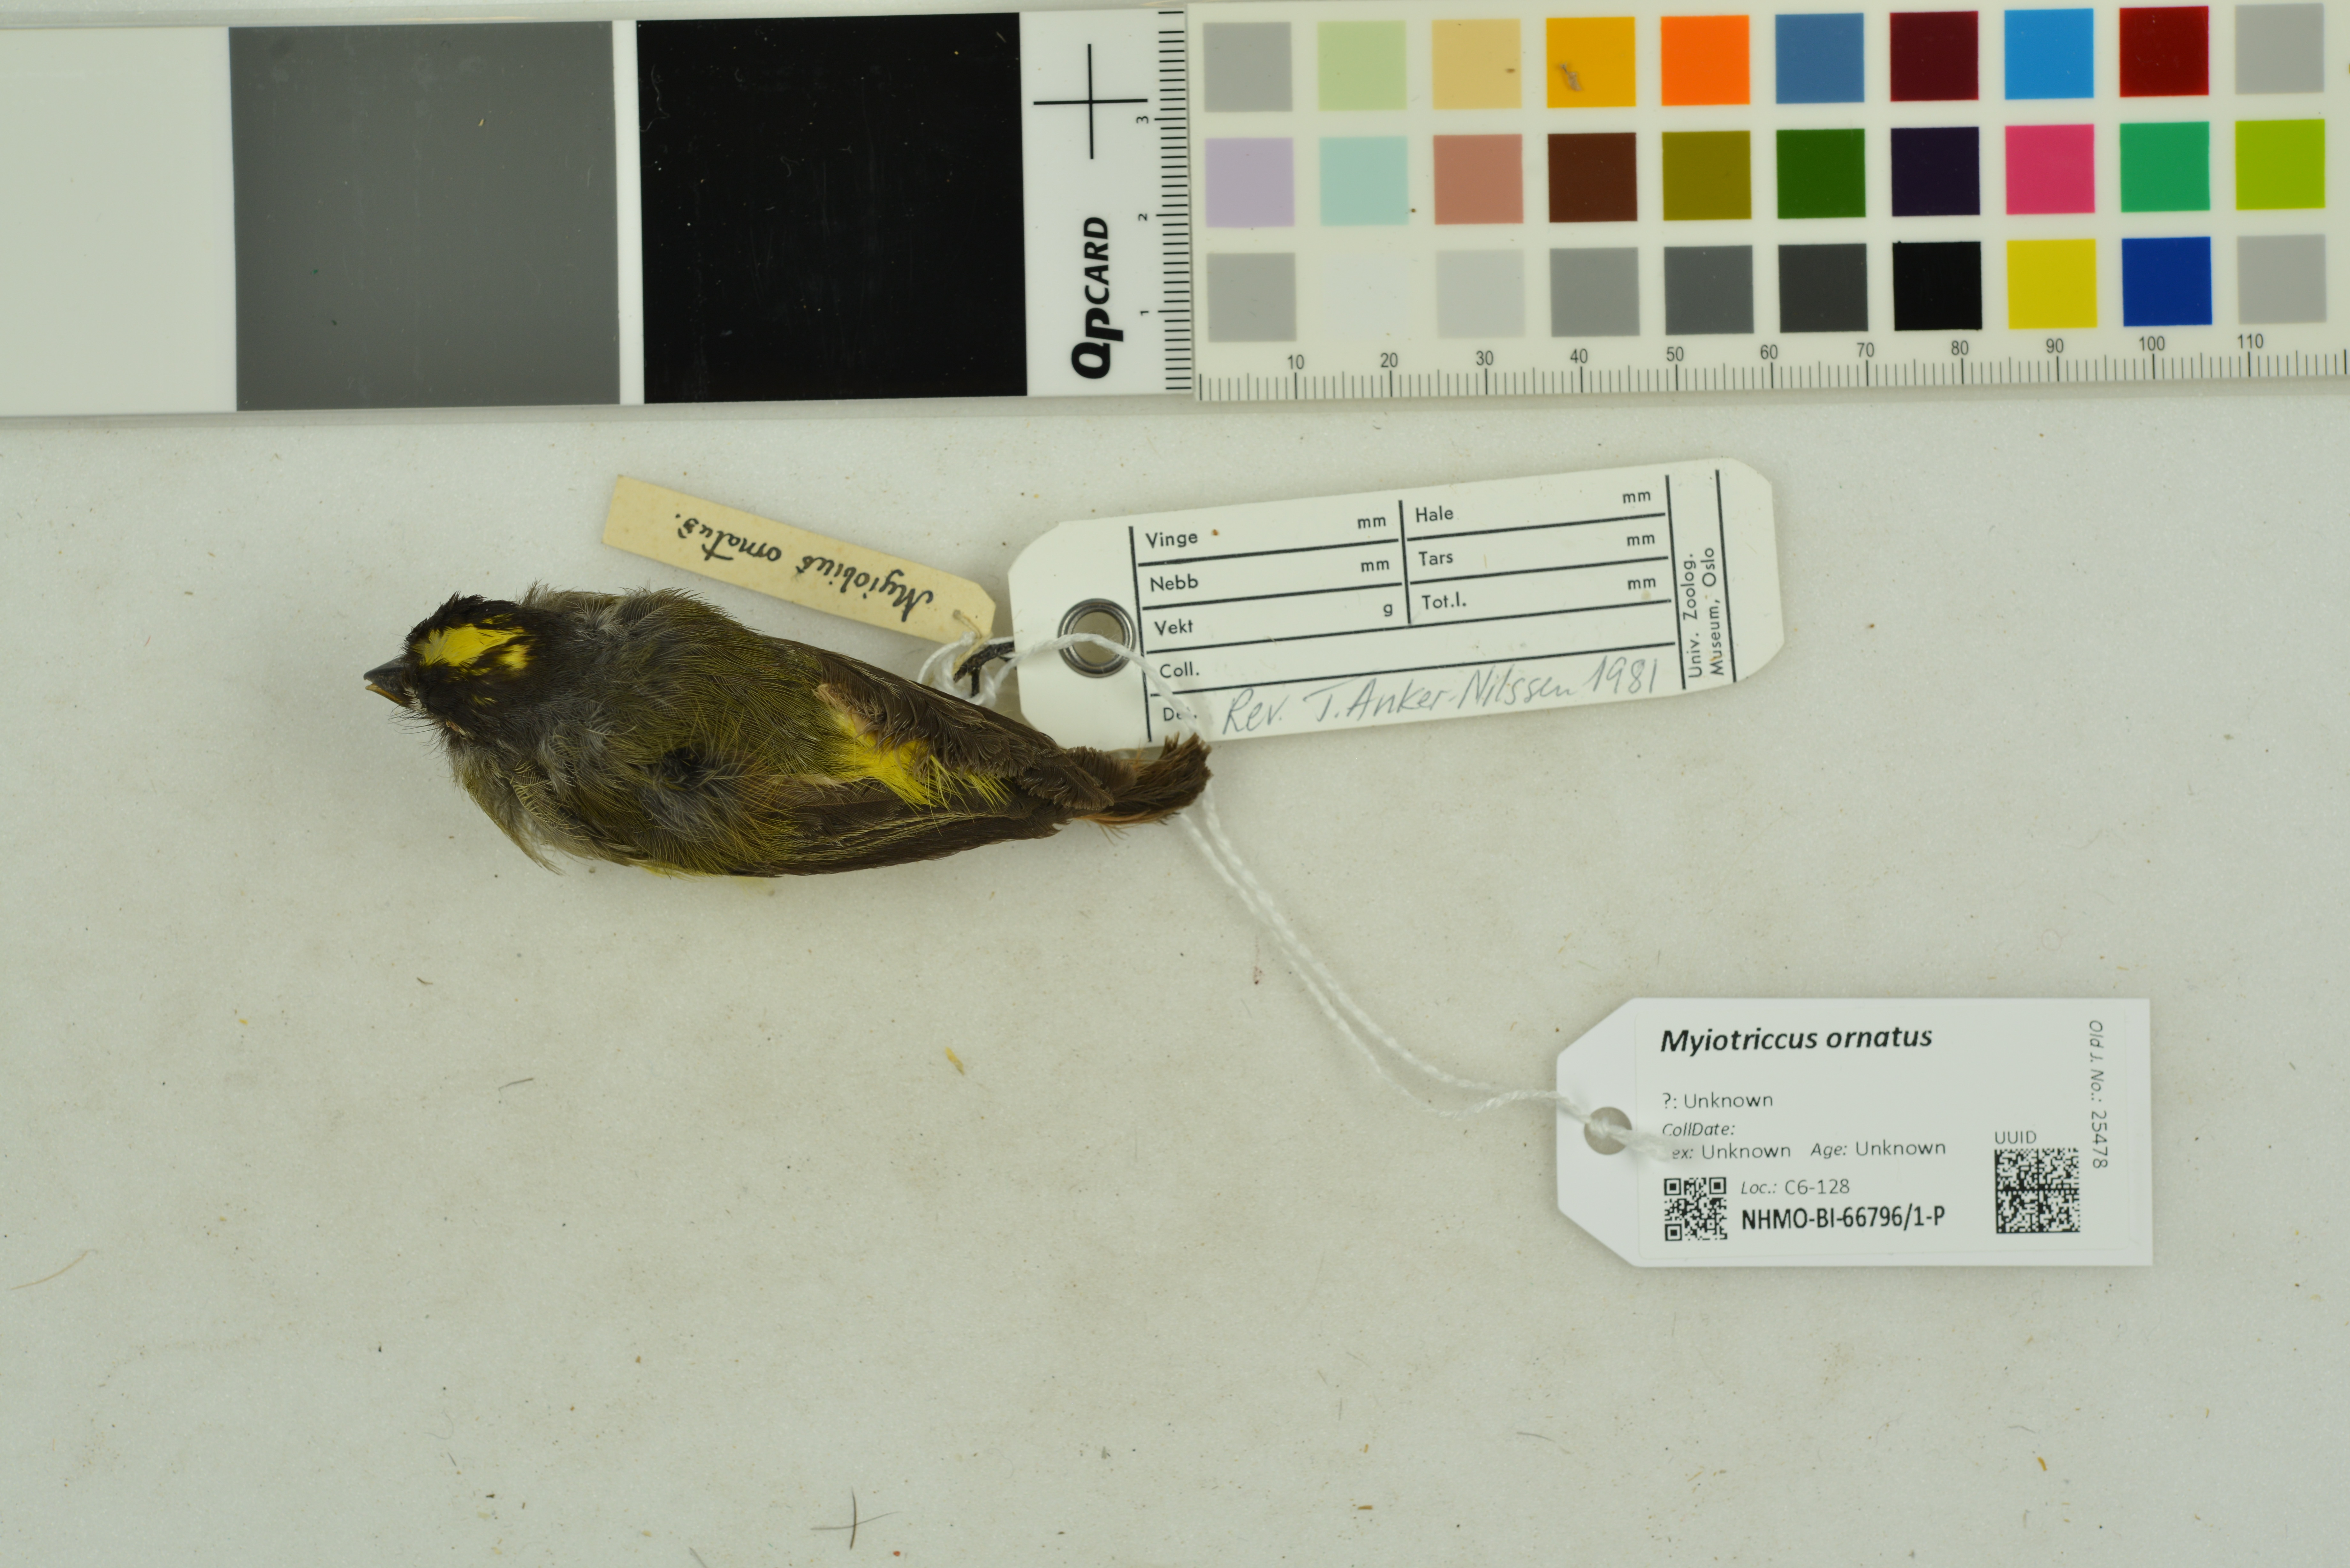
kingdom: Animalia
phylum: Chordata
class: Aves
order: Passeriformes
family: Tyrannidae
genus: Myiotriccus
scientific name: Myiotriccus ornatus
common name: Ornate flycatcher
